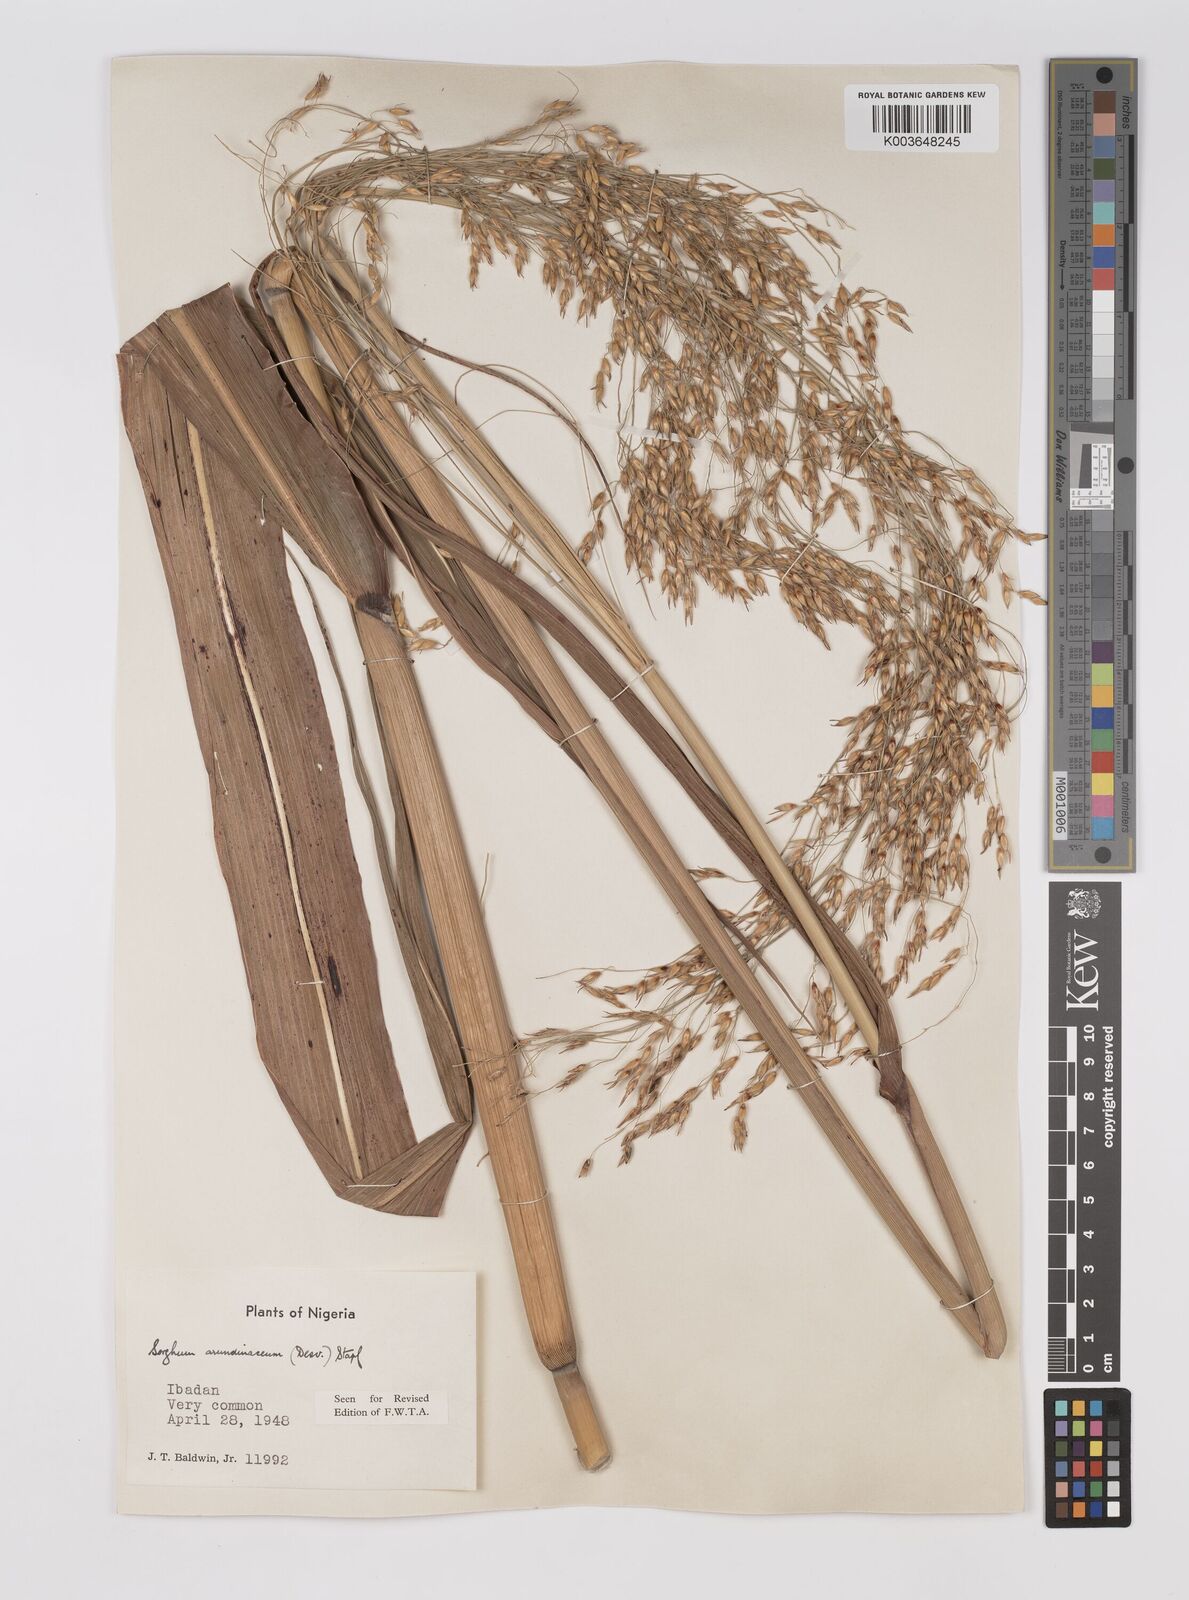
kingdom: Plantae
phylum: Tracheophyta
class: Liliopsida
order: Poales
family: Poaceae
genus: Sorghum
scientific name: Sorghum arundinaceum
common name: Sorghum
